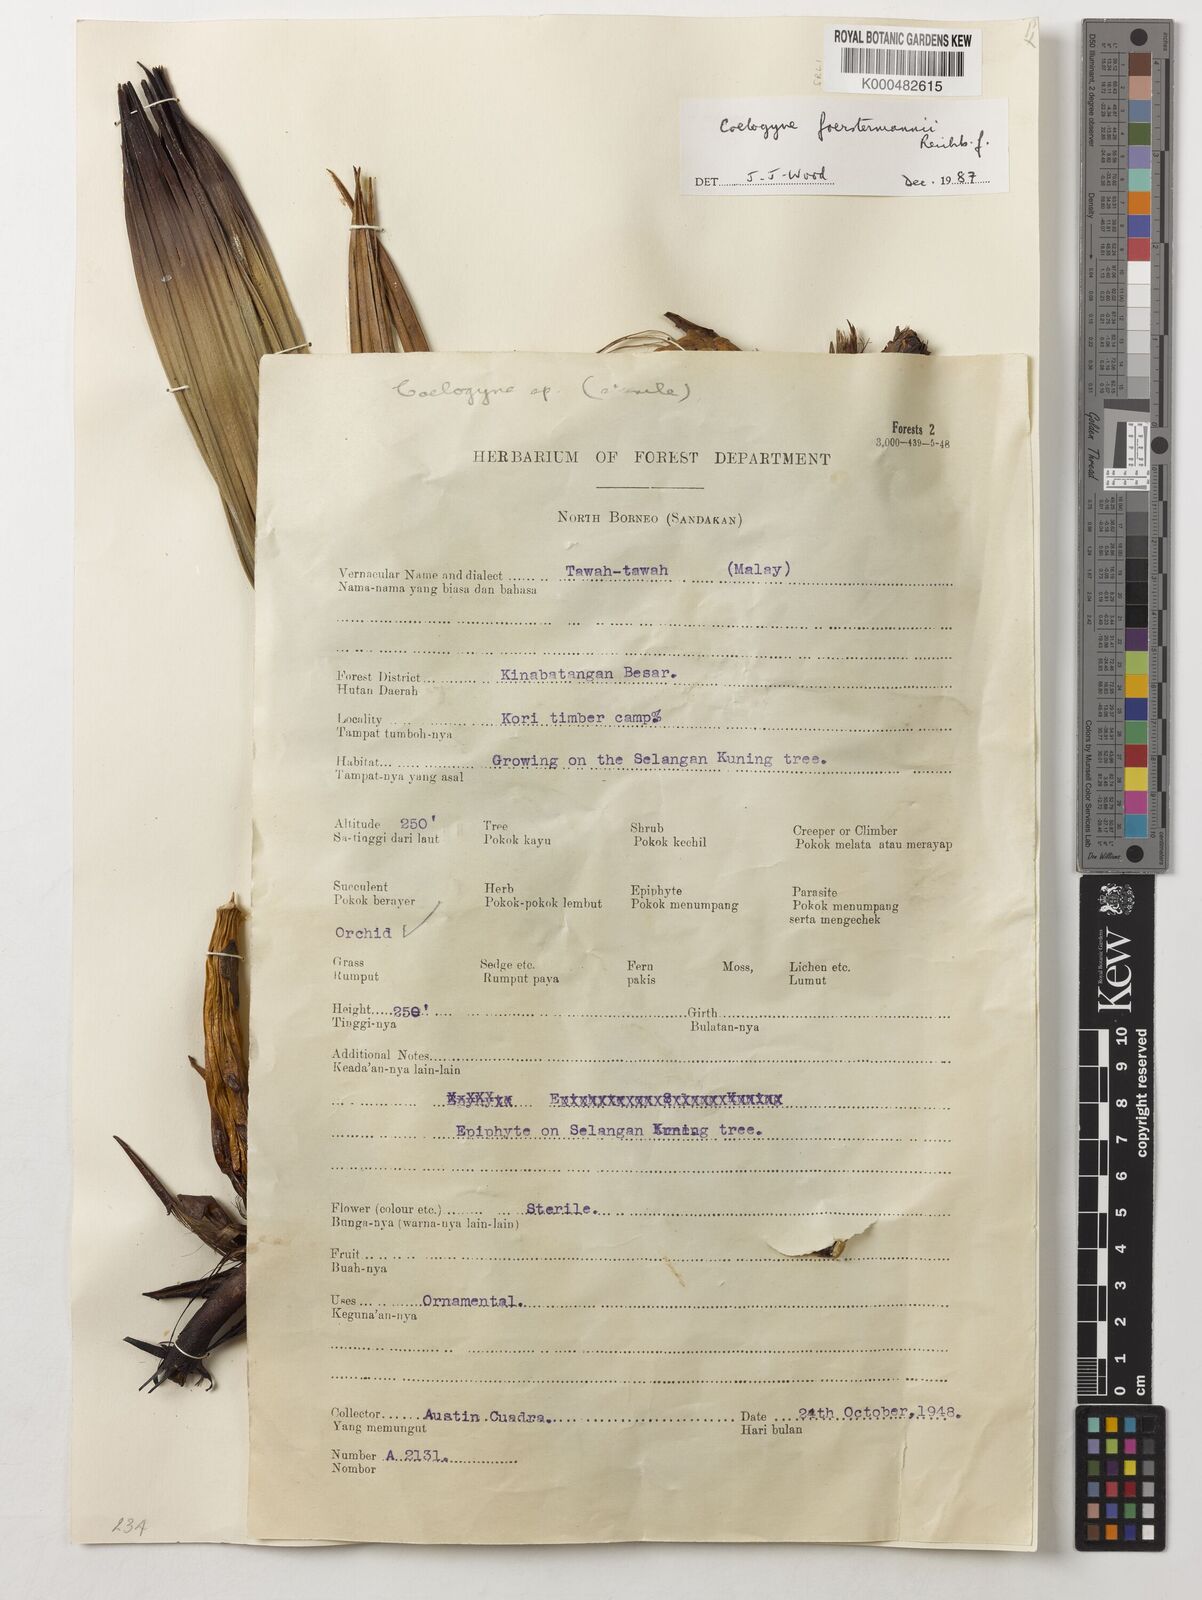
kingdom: Plantae
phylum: Tracheophyta
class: Liliopsida
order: Asparagales
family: Orchidaceae
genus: Coelogyne
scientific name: Coelogyne
